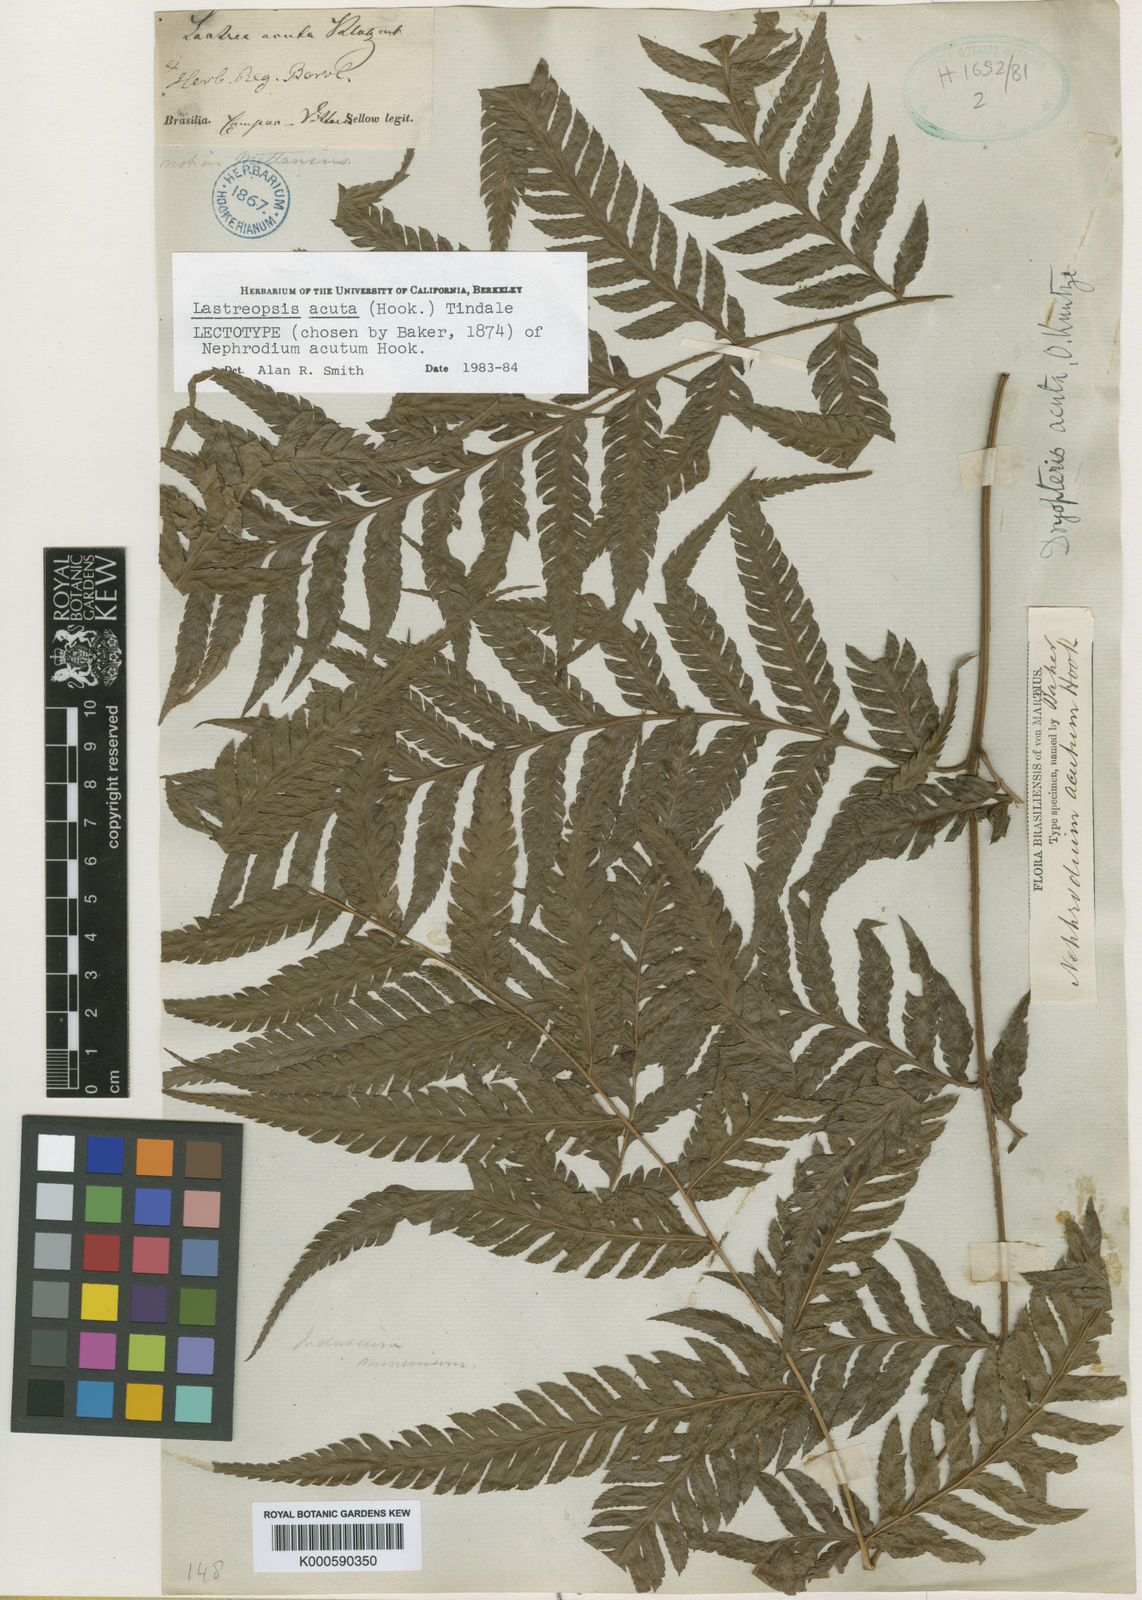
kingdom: Plantae
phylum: Tracheophyta
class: Polypodiopsida
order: Polypodiales
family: Dryopteridaceae
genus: Lastreopsis
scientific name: Lastreopsis amplissima
